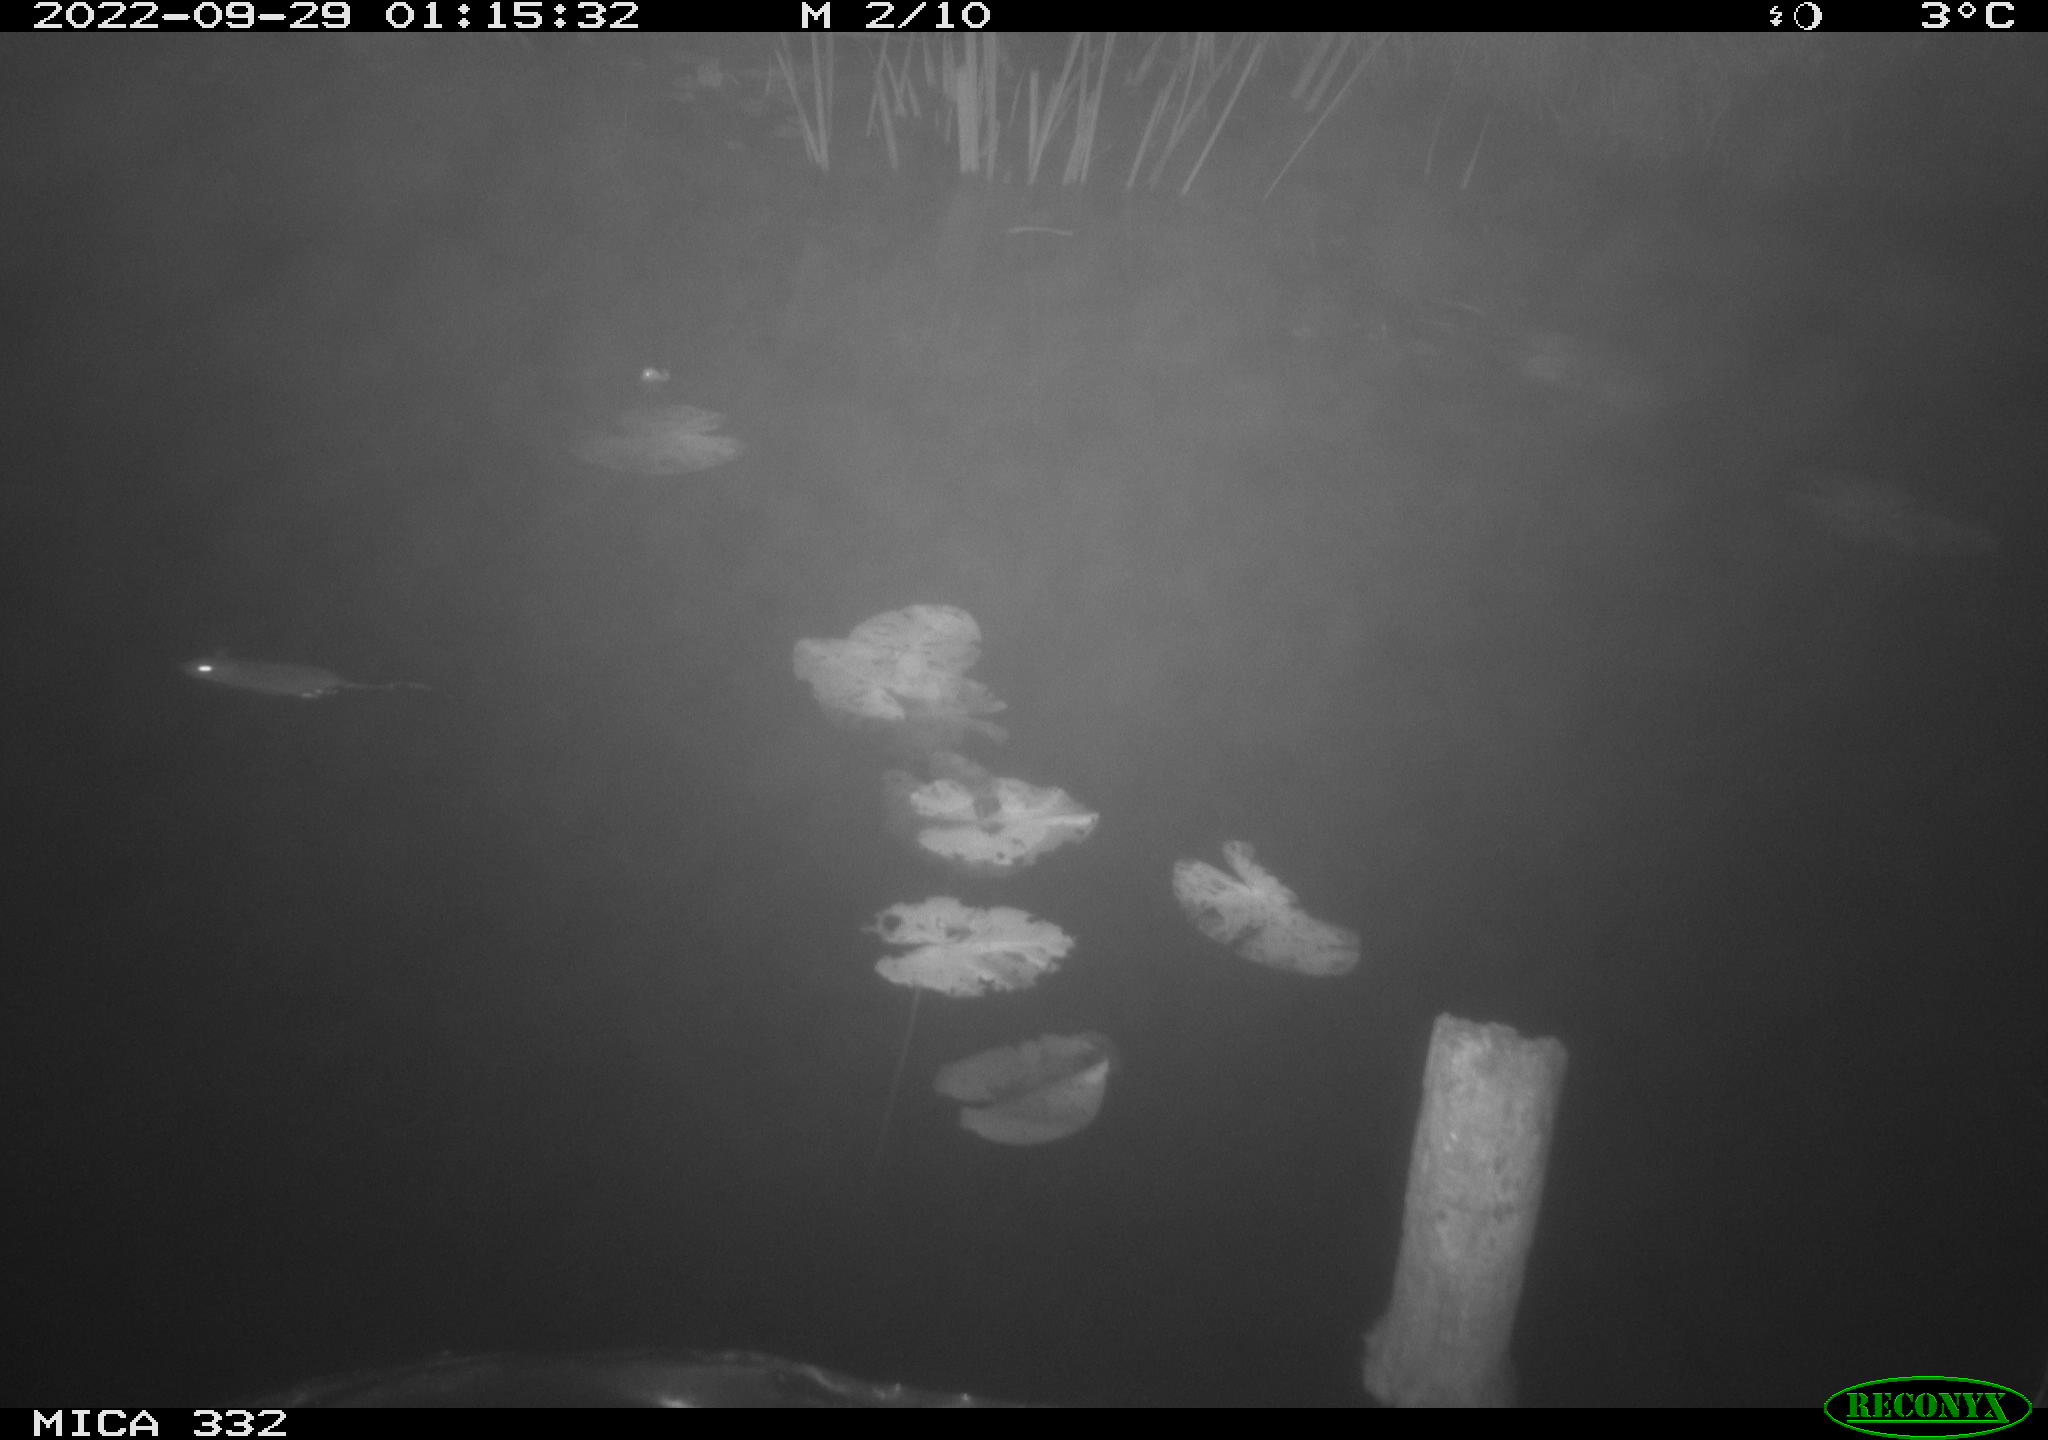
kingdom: Animalia
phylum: Chordata
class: Mammalia
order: Rodentia
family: Muridae
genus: Rattus
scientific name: Rattus norvegicus
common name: Brown rat
